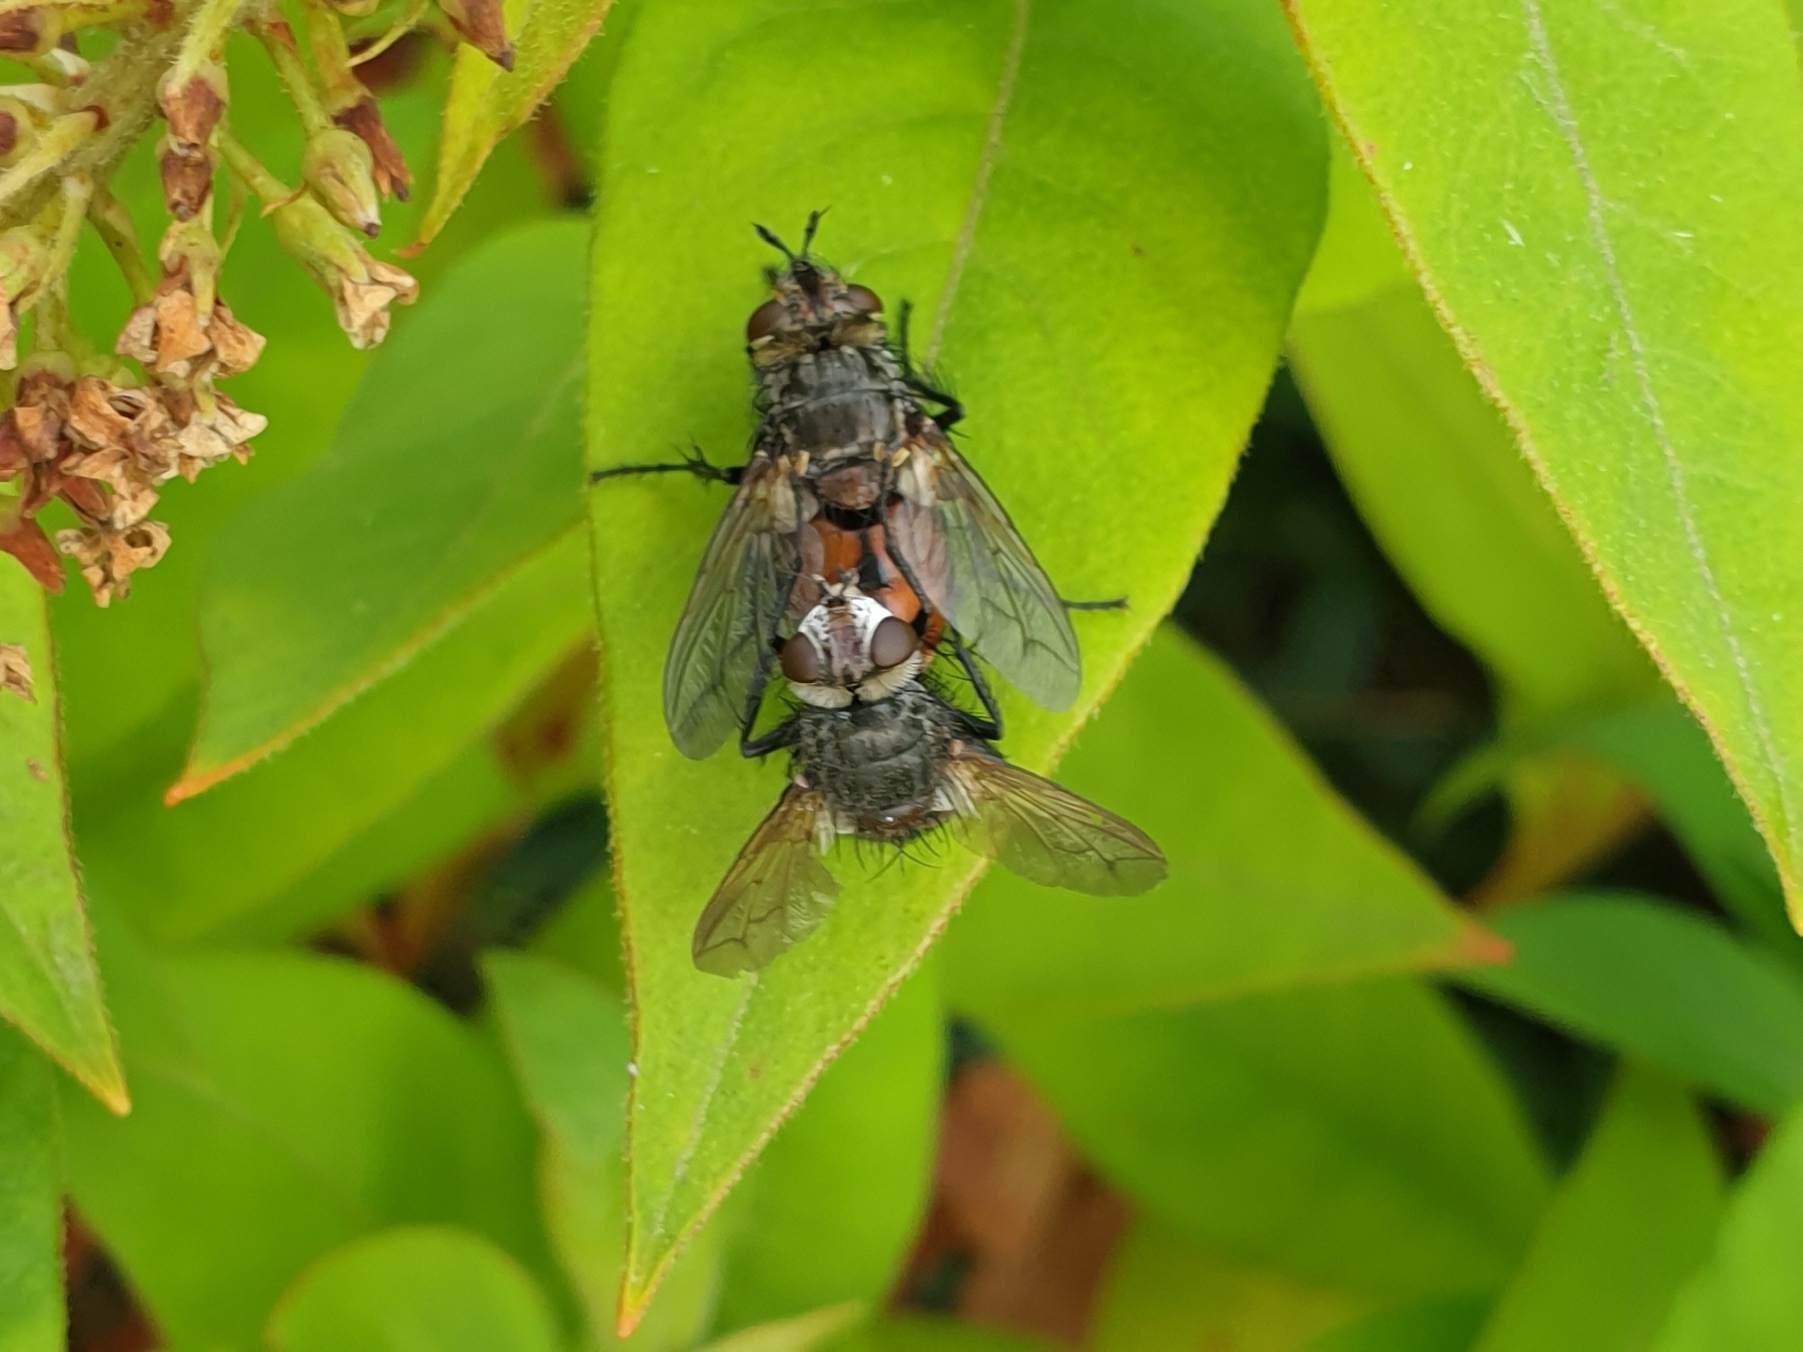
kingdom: Animalia
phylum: Arthropoda
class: Arachnida
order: Araneae
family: Araneidae
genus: Araneus
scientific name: Araneus diadematus
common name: Korsedderkop
